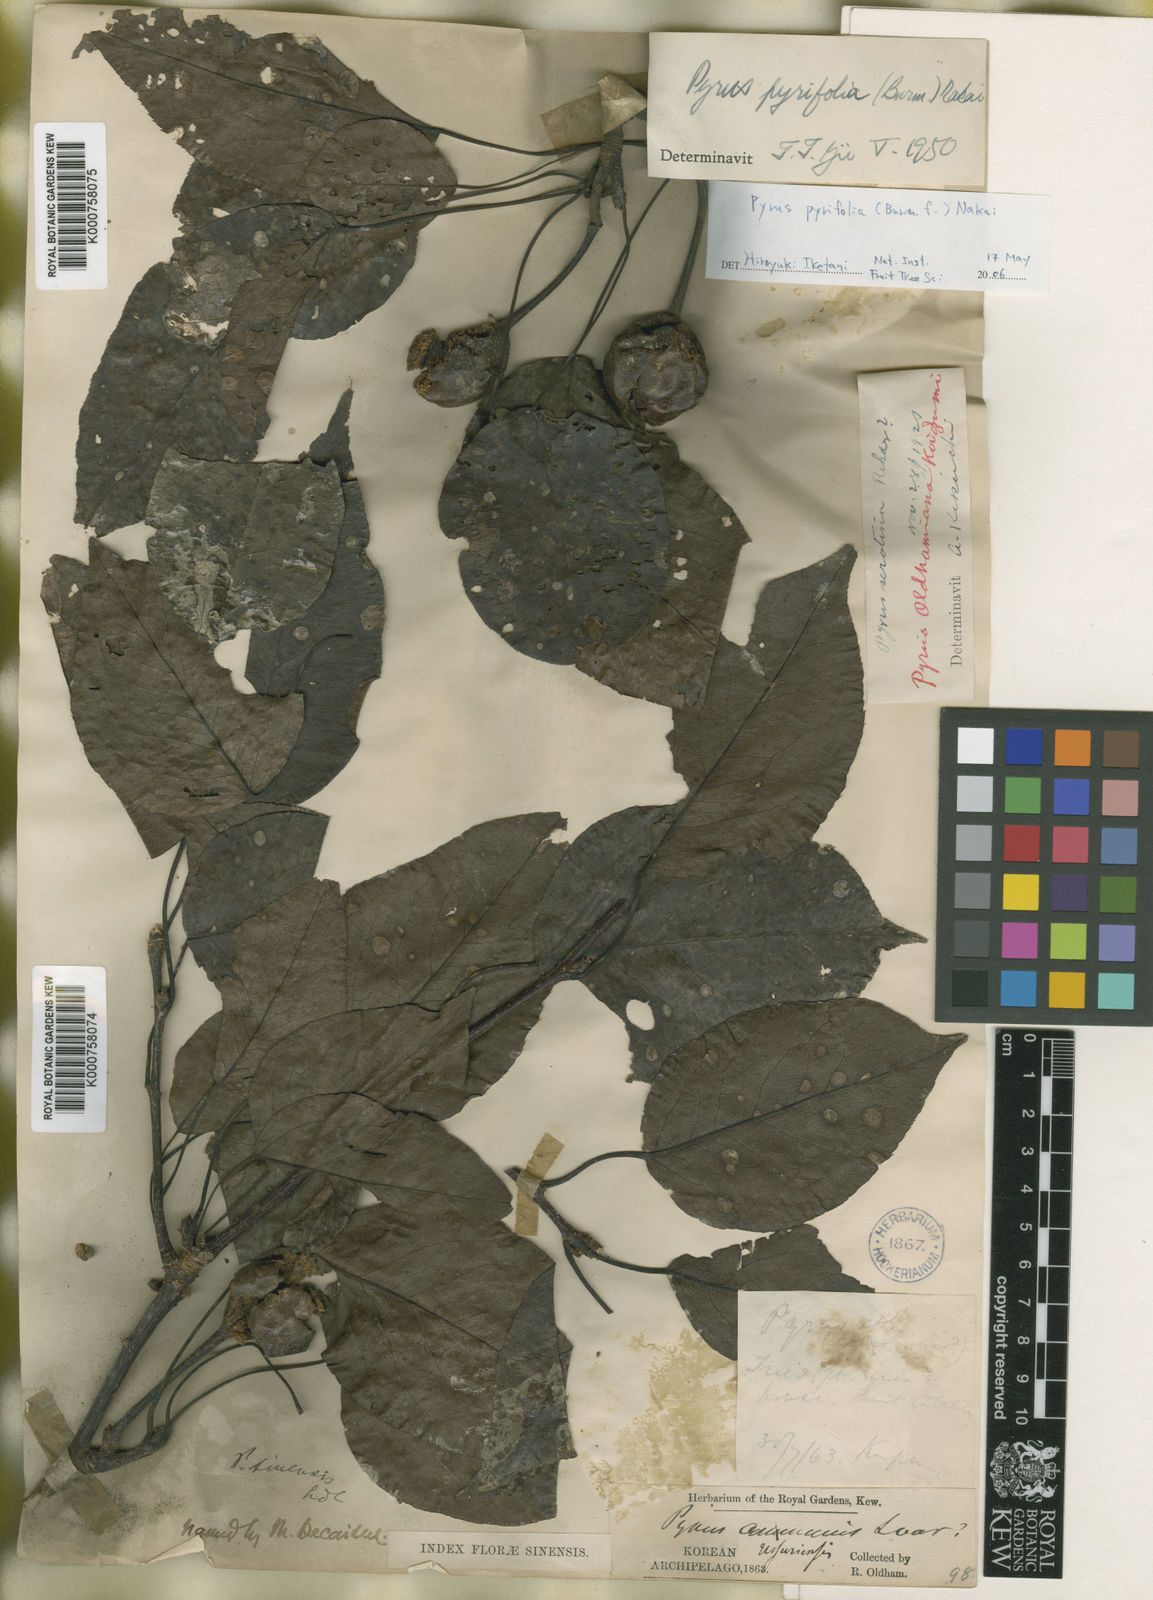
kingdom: Plantae
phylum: Tracheophyta
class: Magnoliopsida
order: Rosales
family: Rosaceae
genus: Pyrus
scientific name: Pyrus ussuriensis
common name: Harbin pear
